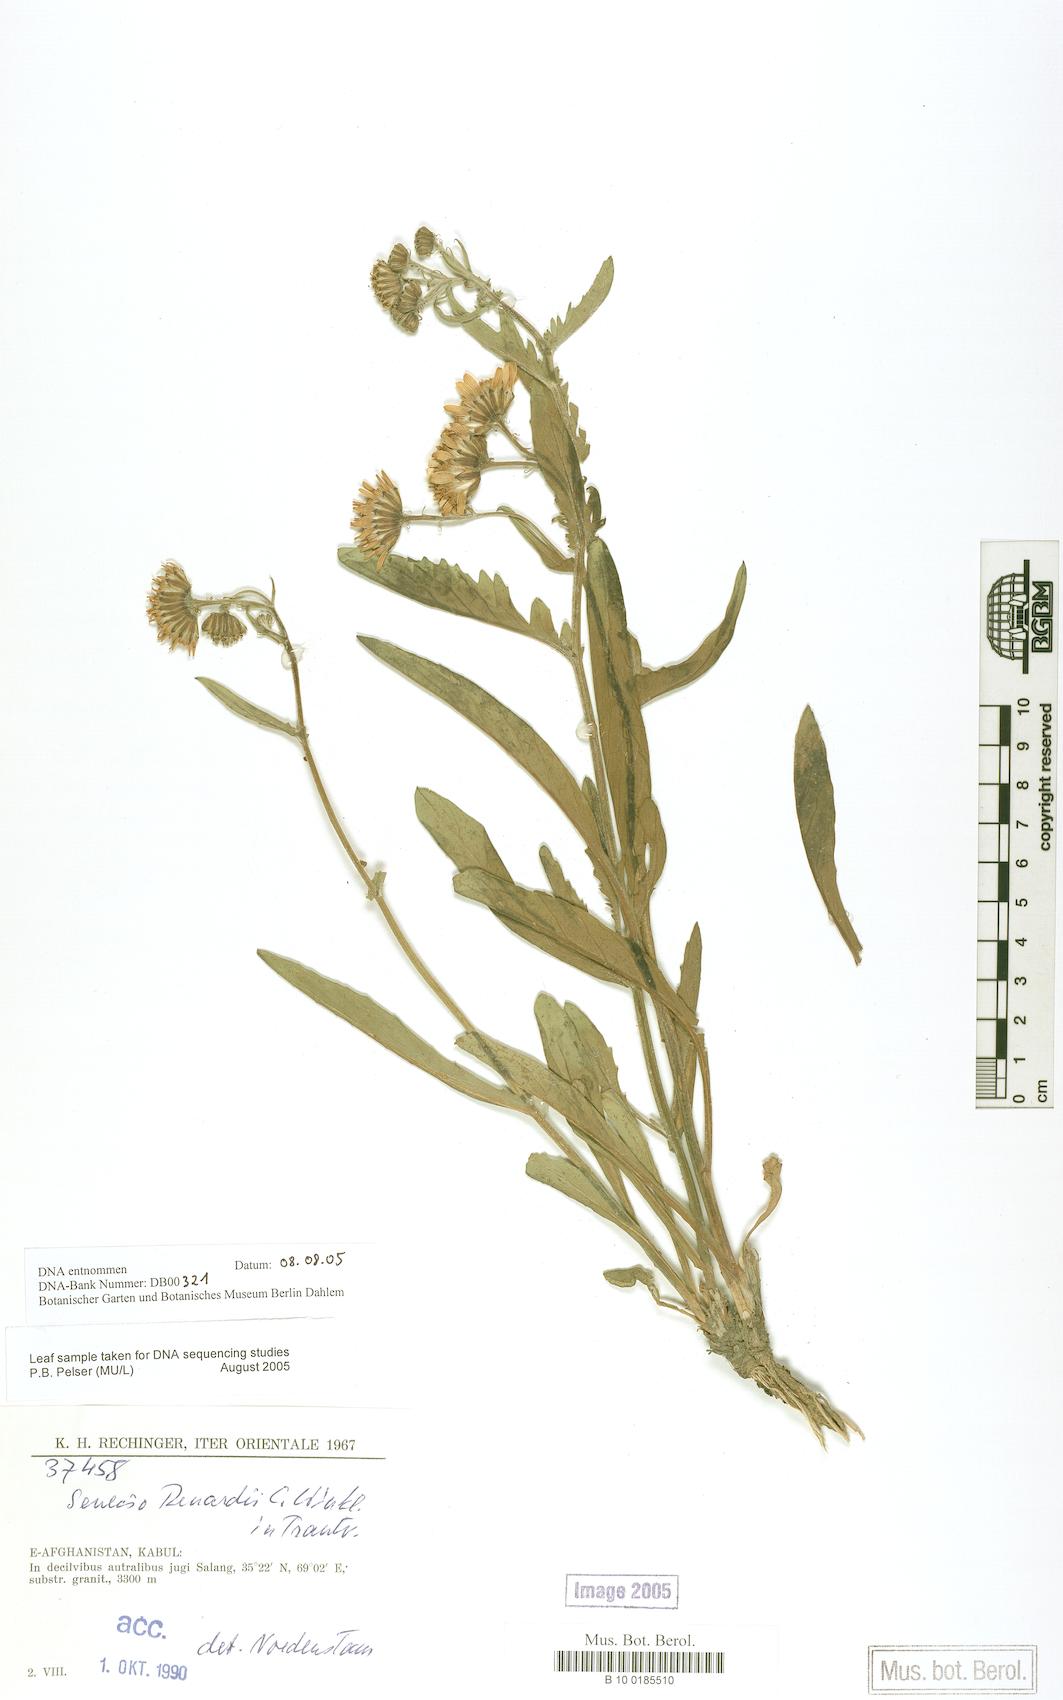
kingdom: Plantae
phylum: Tracheophyta
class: Magnoliopsida
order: Asterales
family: Asteraceae
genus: Jacobaea
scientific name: Jacobaea renardii
